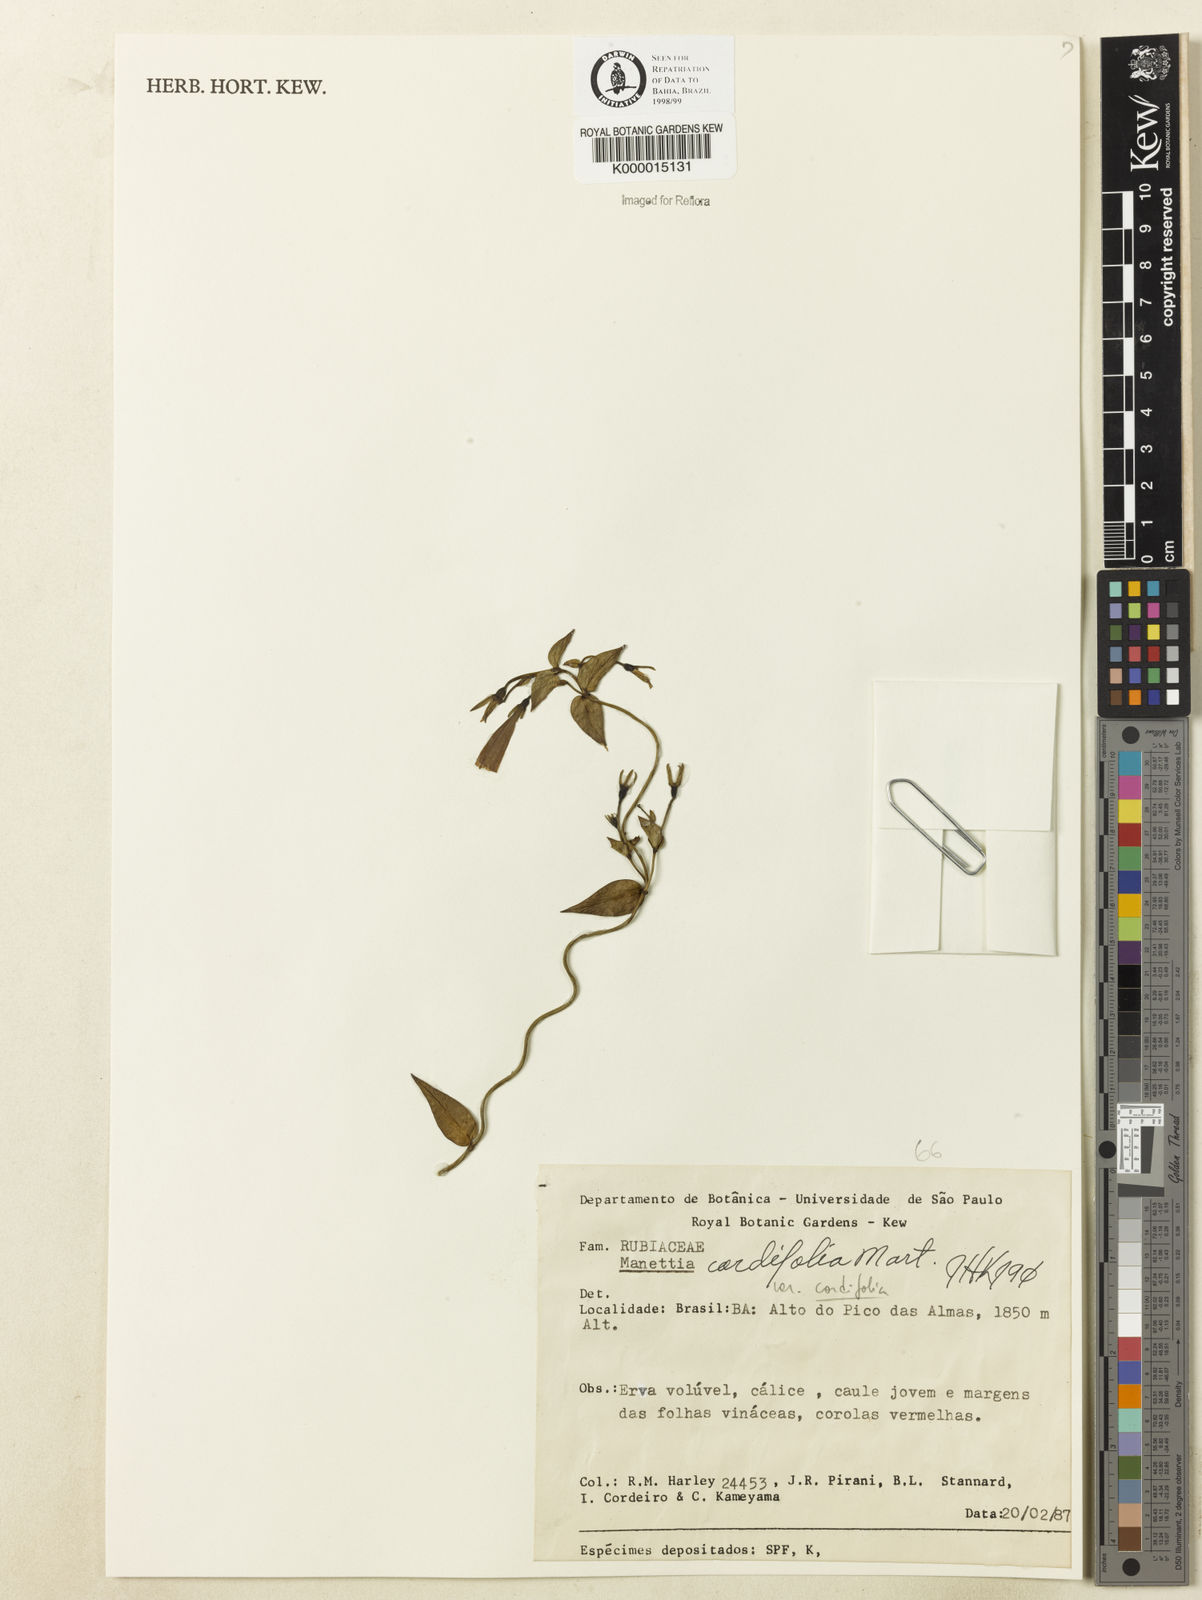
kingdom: Plantae
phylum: Tracheophyta
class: Magnoliopsida
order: Gentianales
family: Rubiaceae
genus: Manettia
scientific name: Manettia cordifolia
